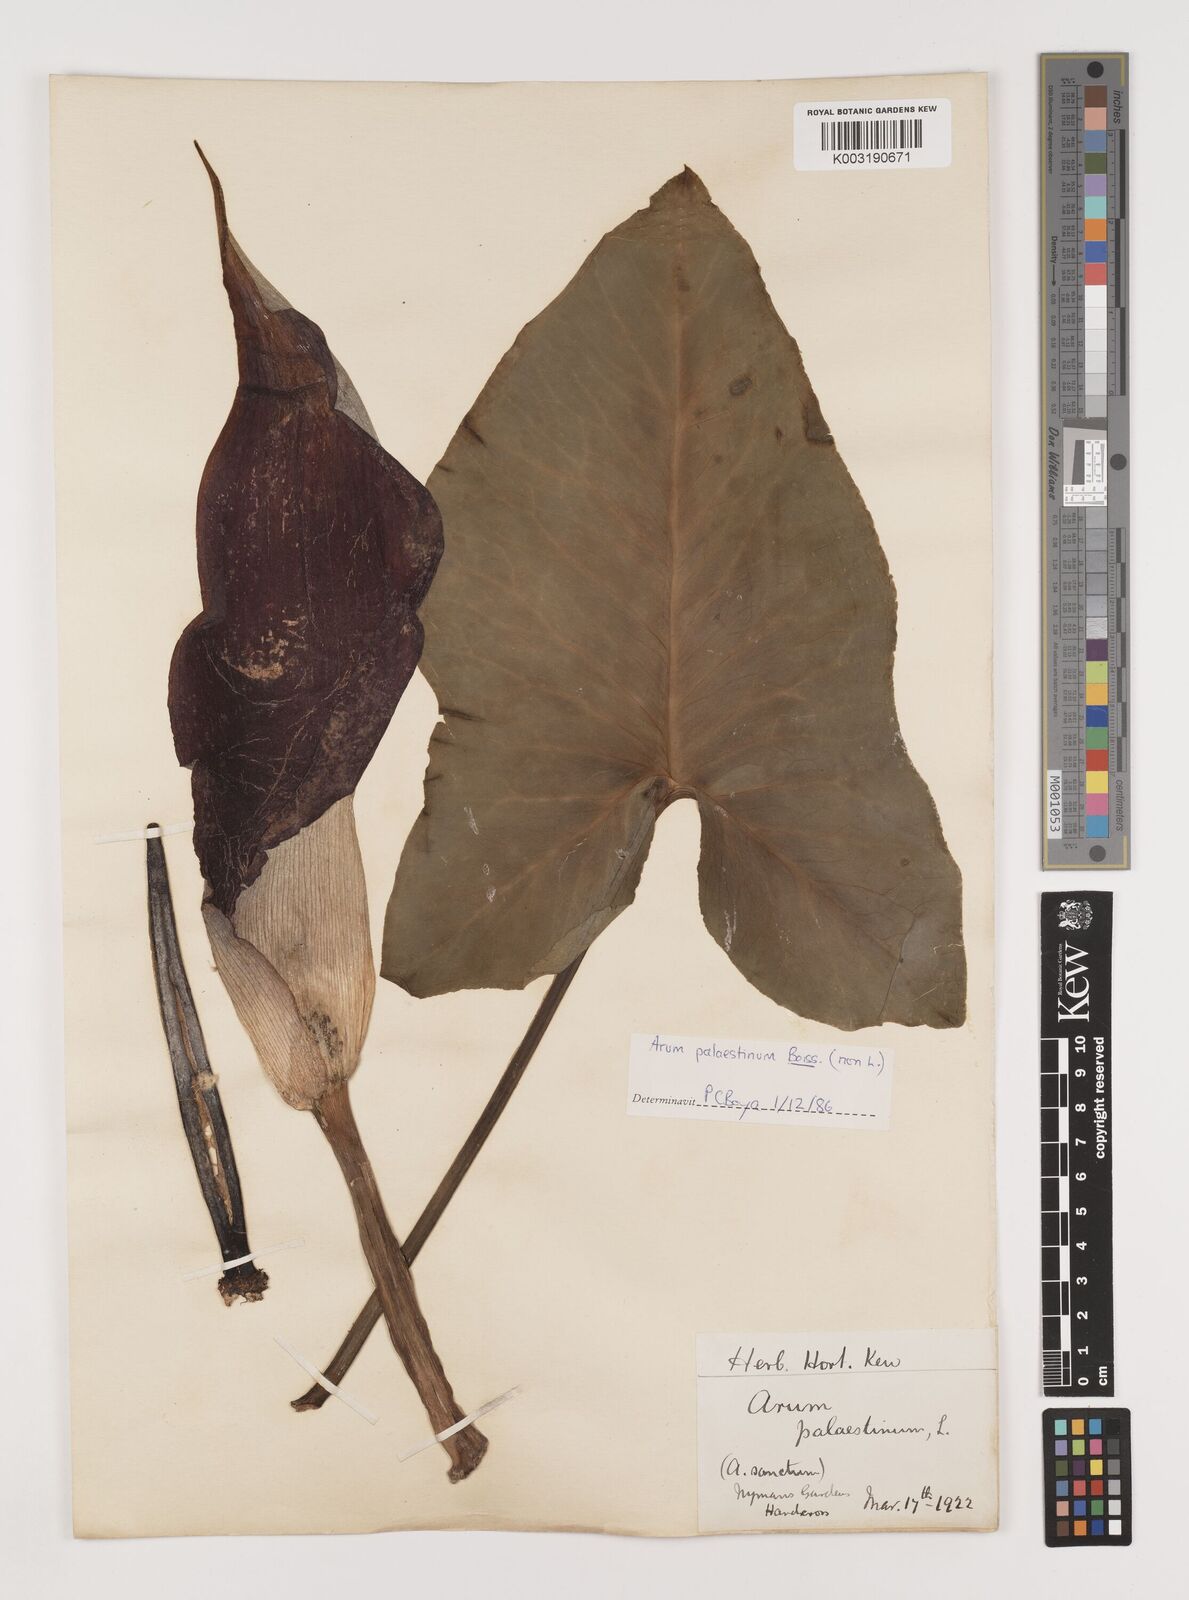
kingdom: Plantae
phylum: Tracheophyta
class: Liliopsida
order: Alismatales
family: Araceae
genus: Arum
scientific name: Arum palaestinum
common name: Solomon's lily
